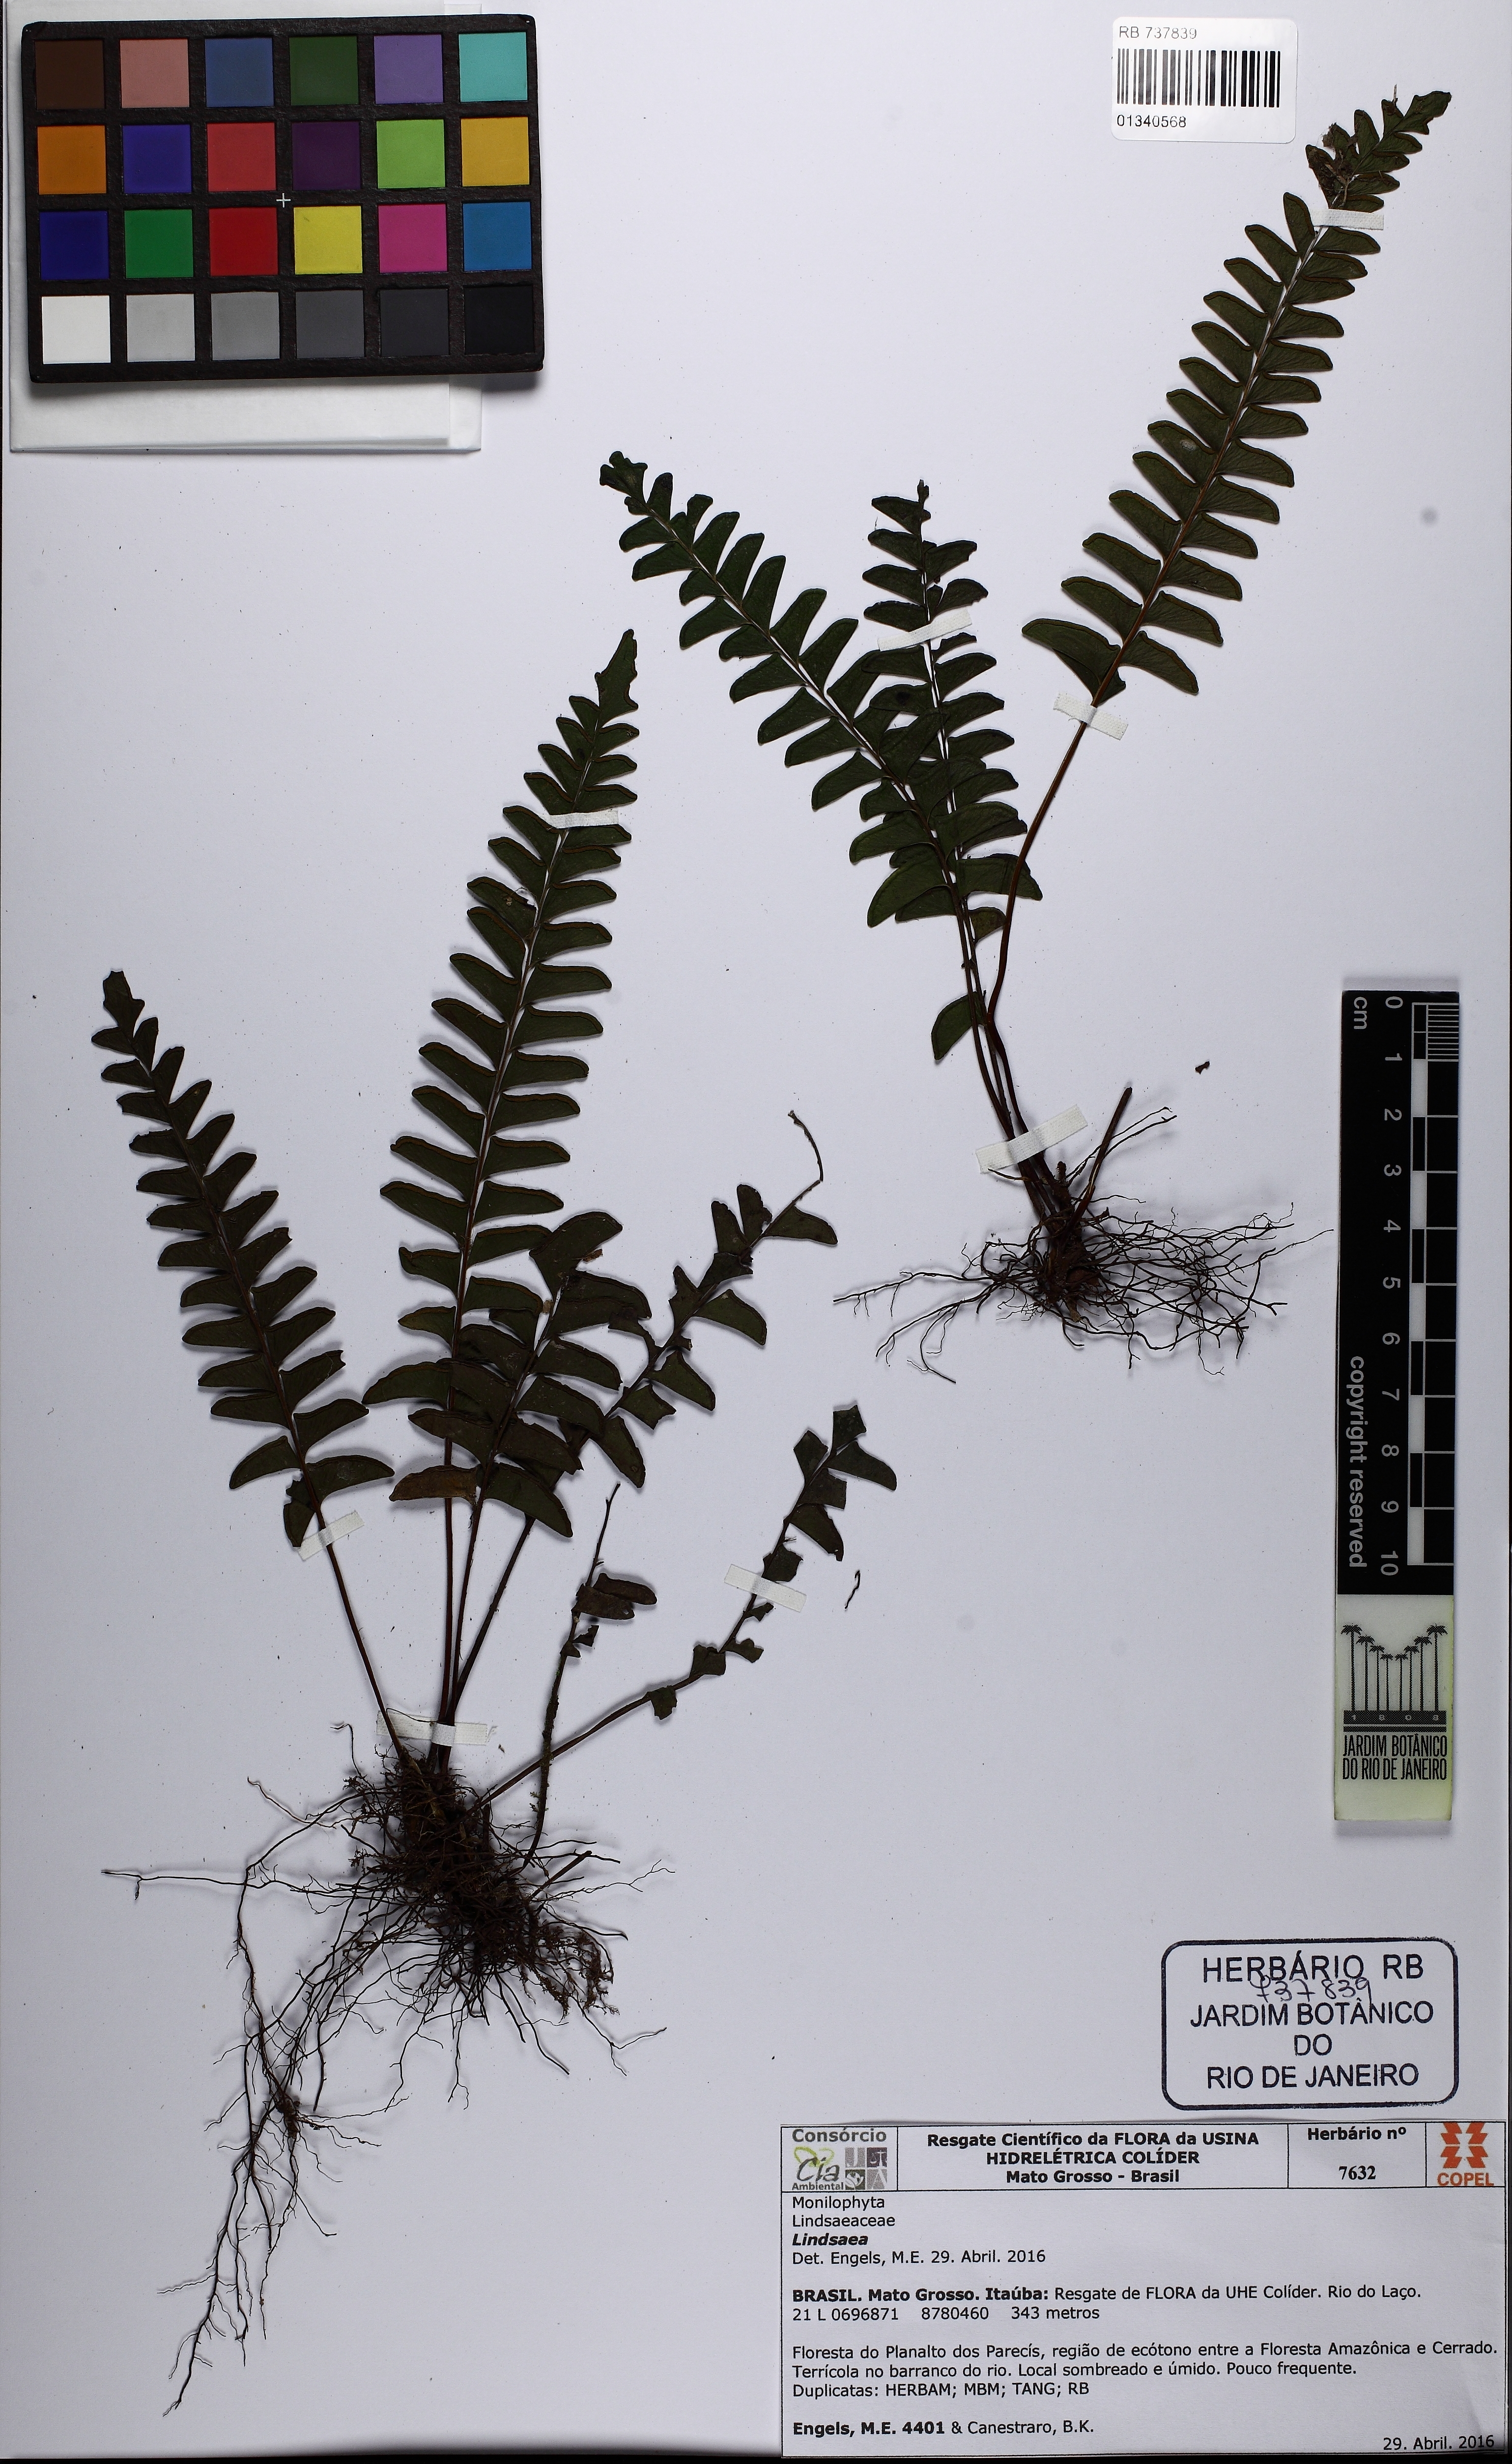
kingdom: Plantae
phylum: Tracheophyta
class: Polypodiopsida
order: Polypodiales
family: Lindsaeaceae
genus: Lindsaea
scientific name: Lindsaea
